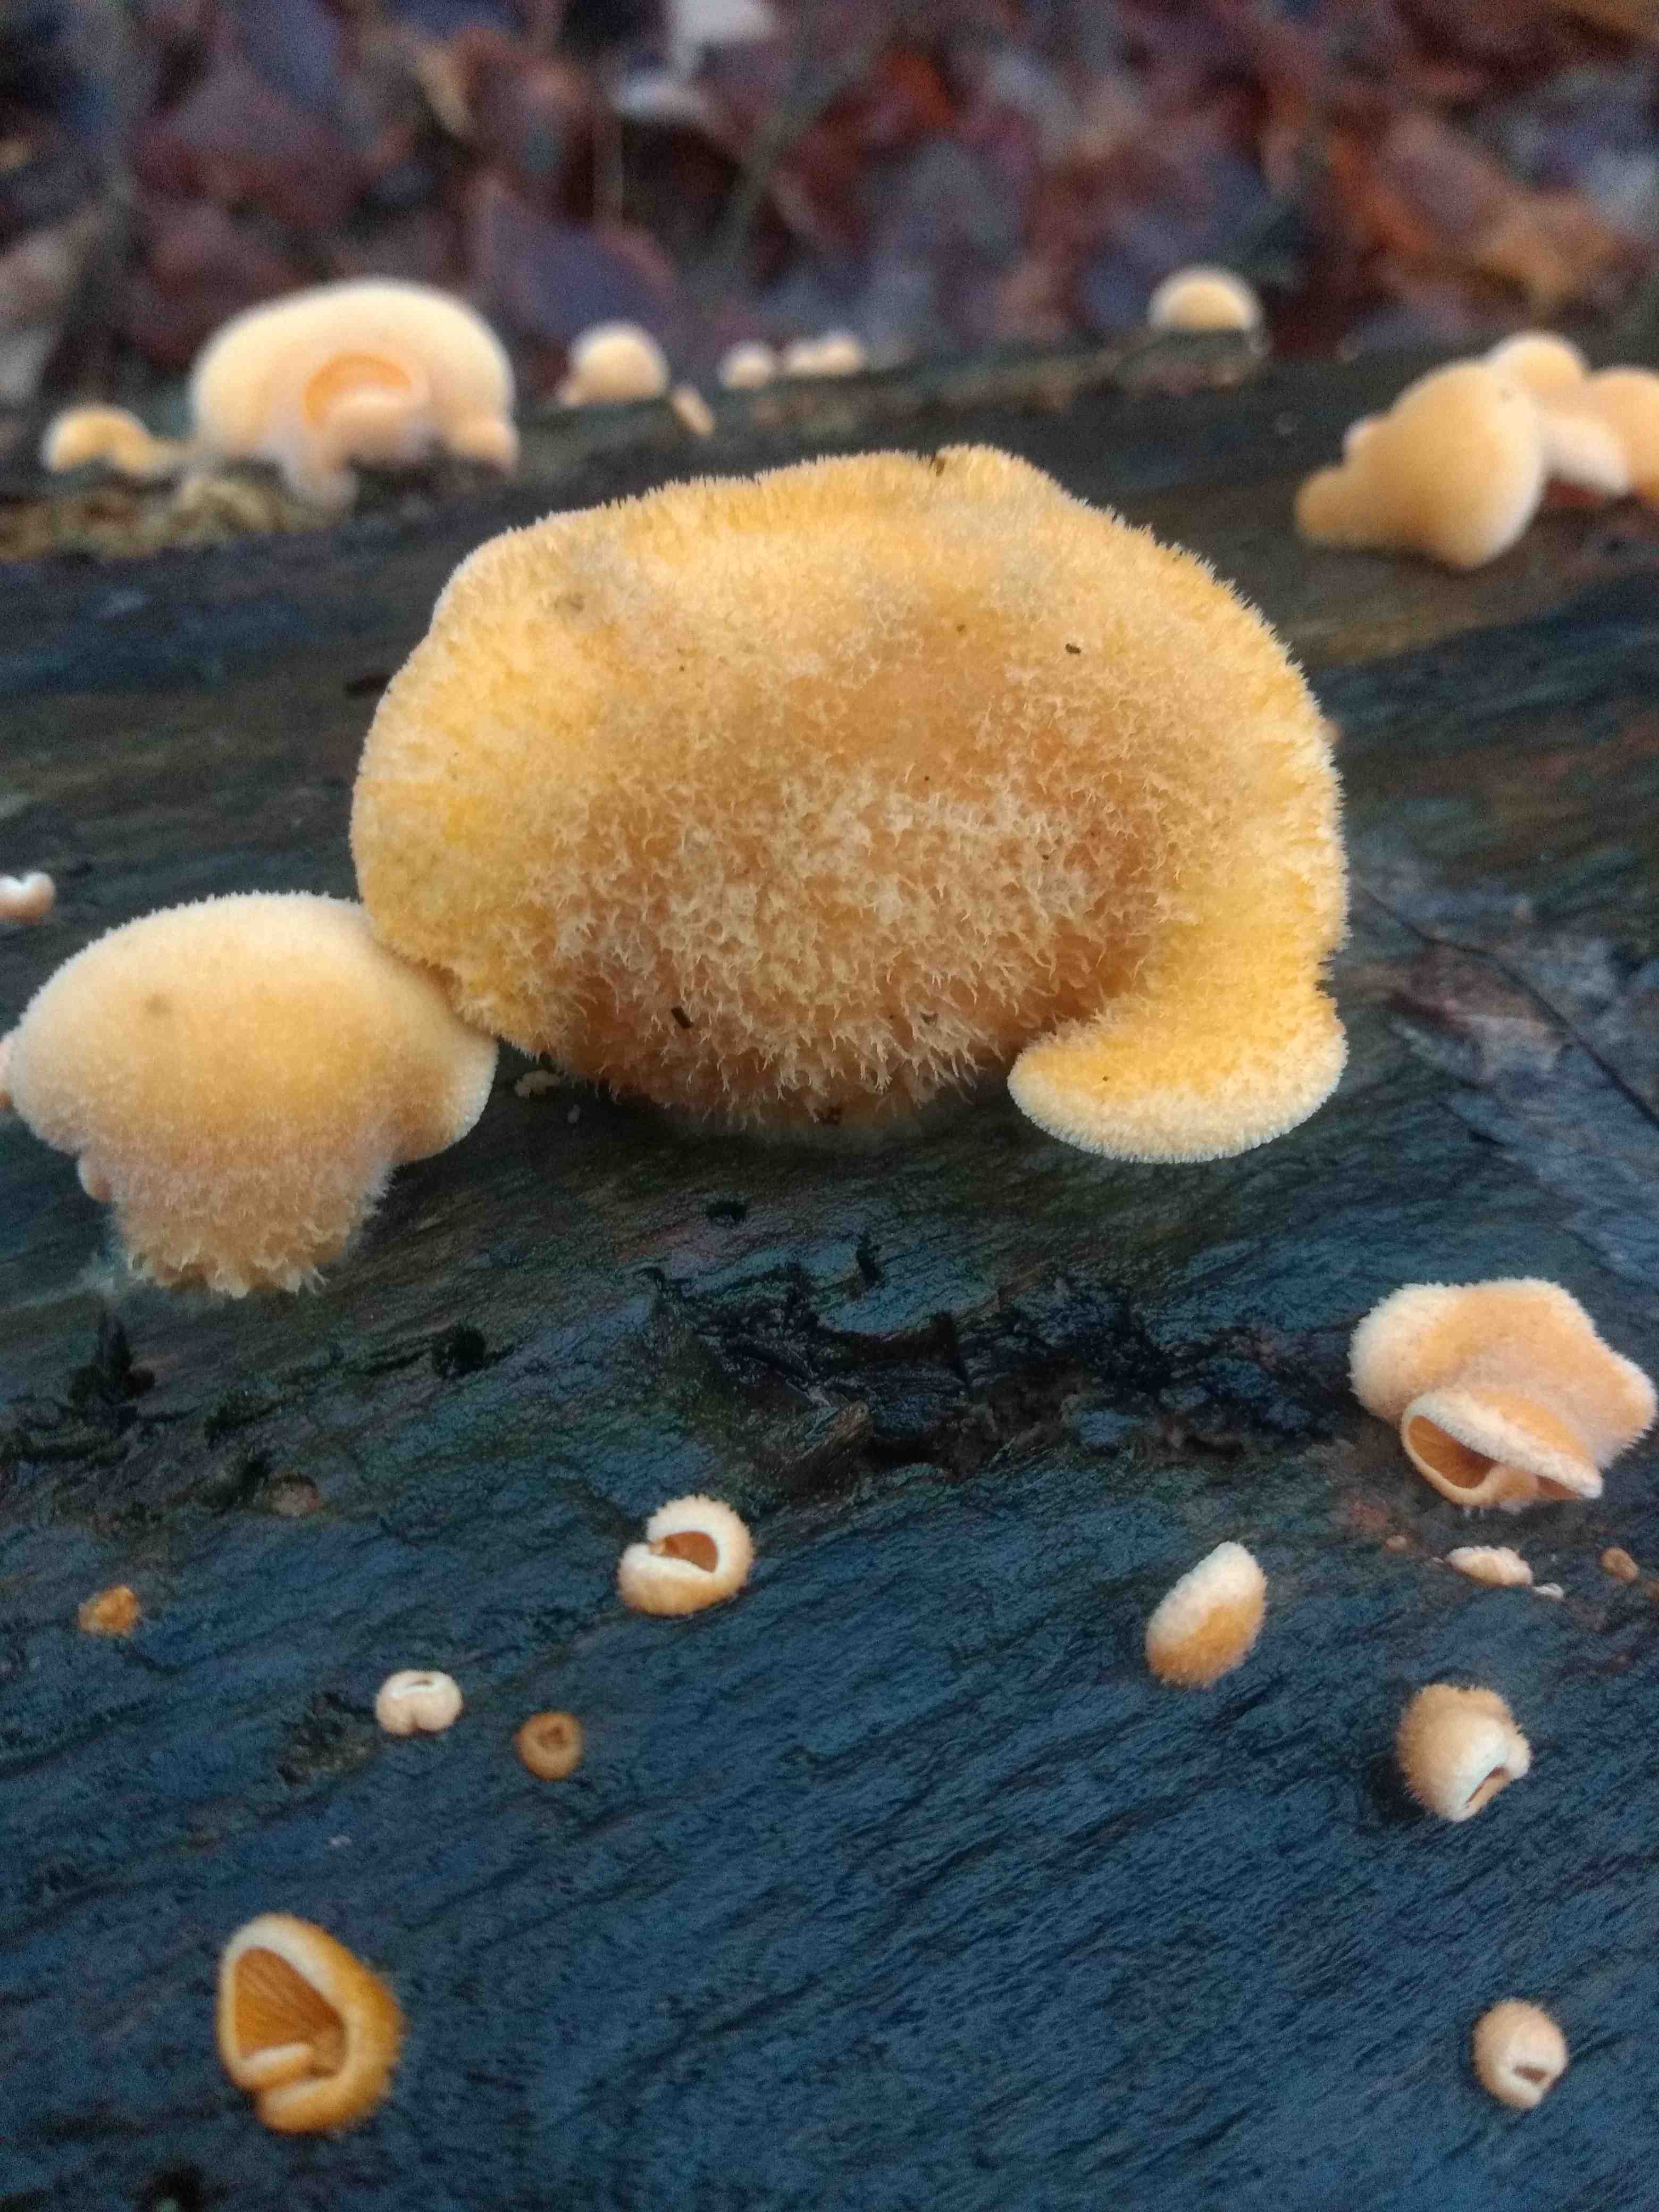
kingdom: Fungi
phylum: Basidiomycota
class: Agaricomycetes
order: Agaricales
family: Phyllotopsidaceae
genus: Phyllotopsis
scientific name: Phyllotopsis nidulans
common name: okkerblad
